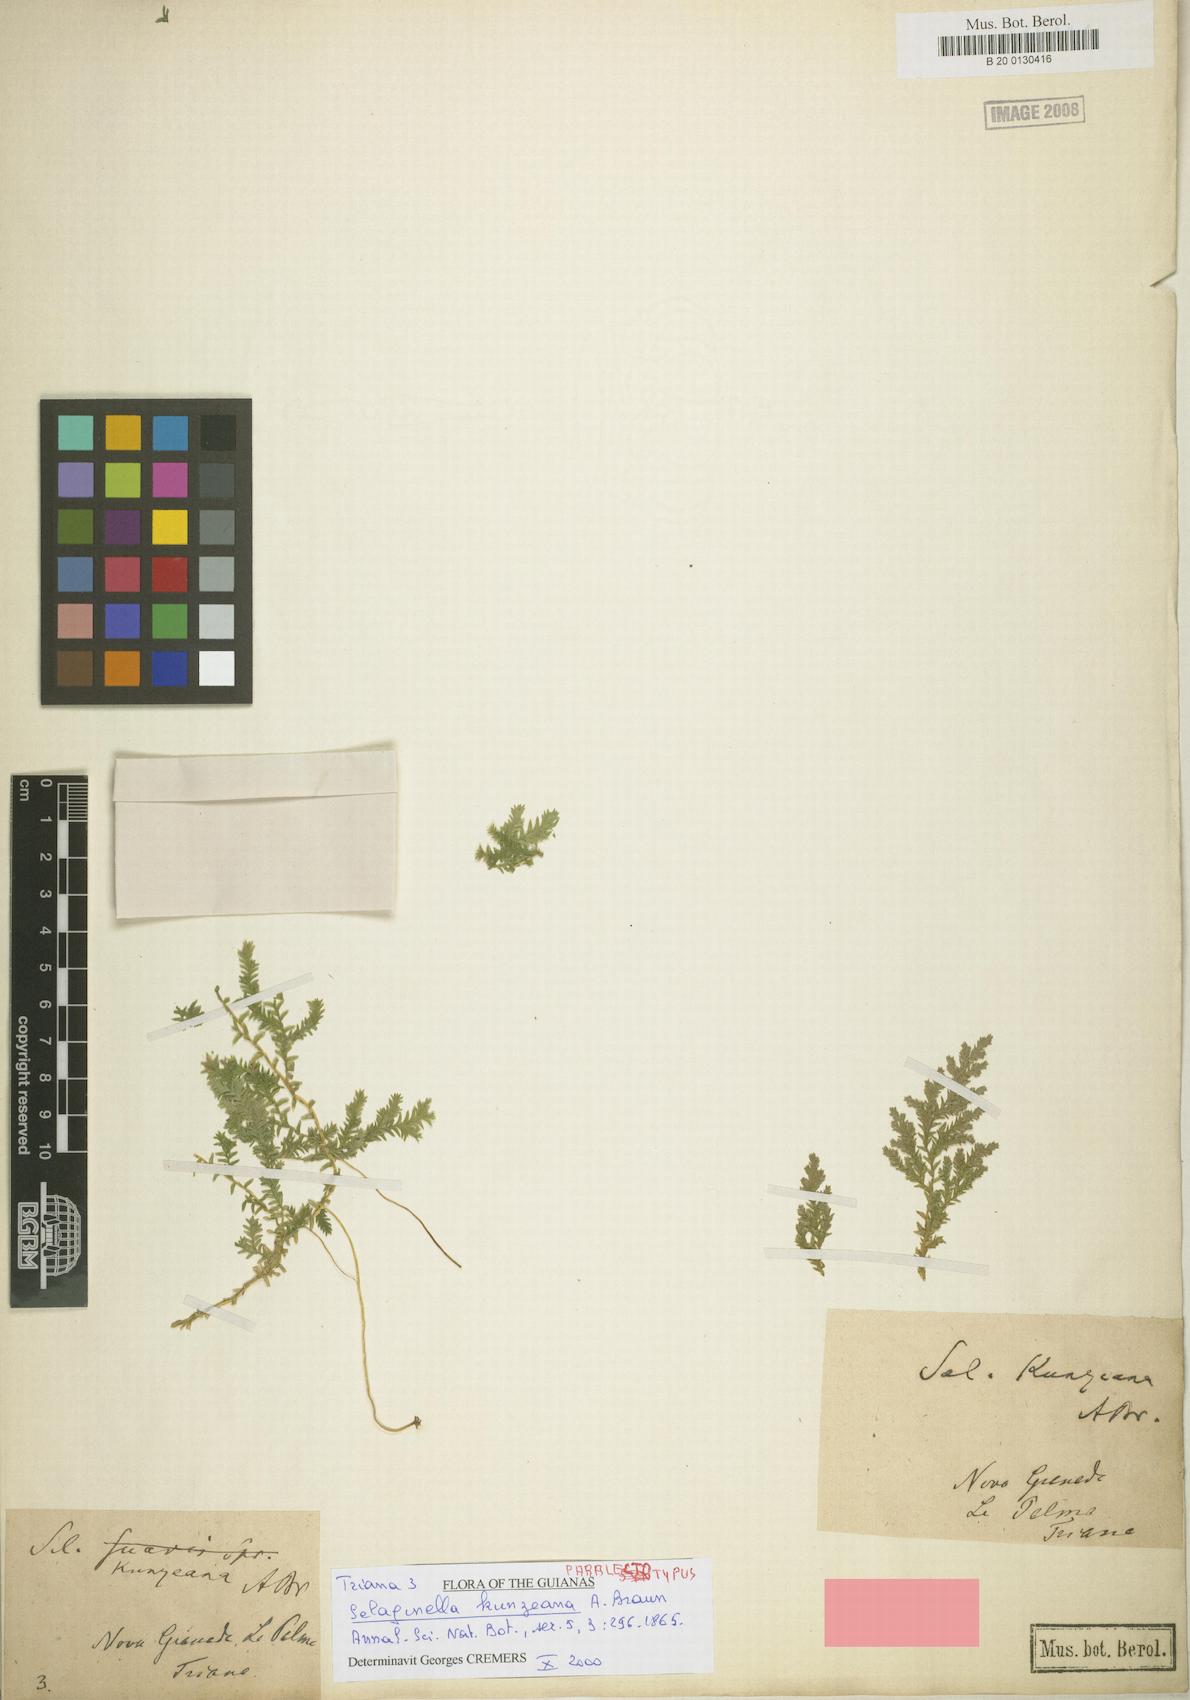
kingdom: Plantae
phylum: Tracheophyta
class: Lycopodiopsida
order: Selaginellales
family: Selaginellaceae
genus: Selaginella
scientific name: Selaginella kunzeana
